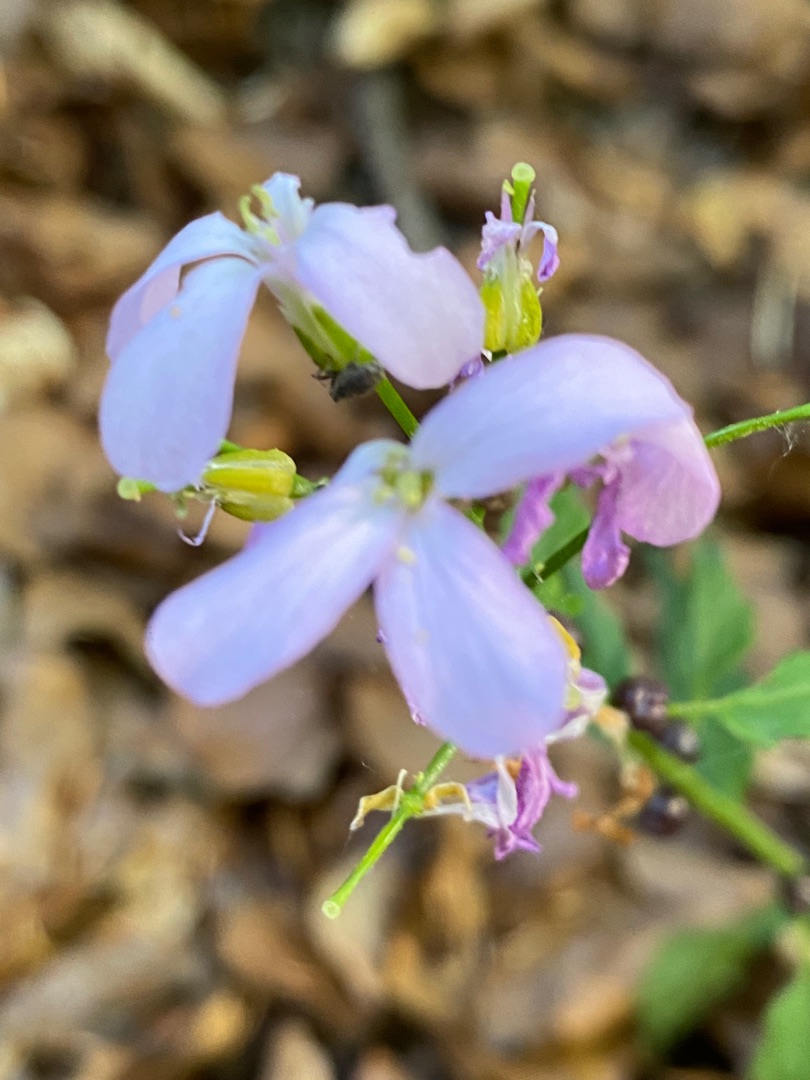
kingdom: Plantae
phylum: Tracheophyta
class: Magnoliopsida
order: Brassicales
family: Brassicaceae
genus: Cardamine
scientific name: Cardamine bulbifera
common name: Tandrod
